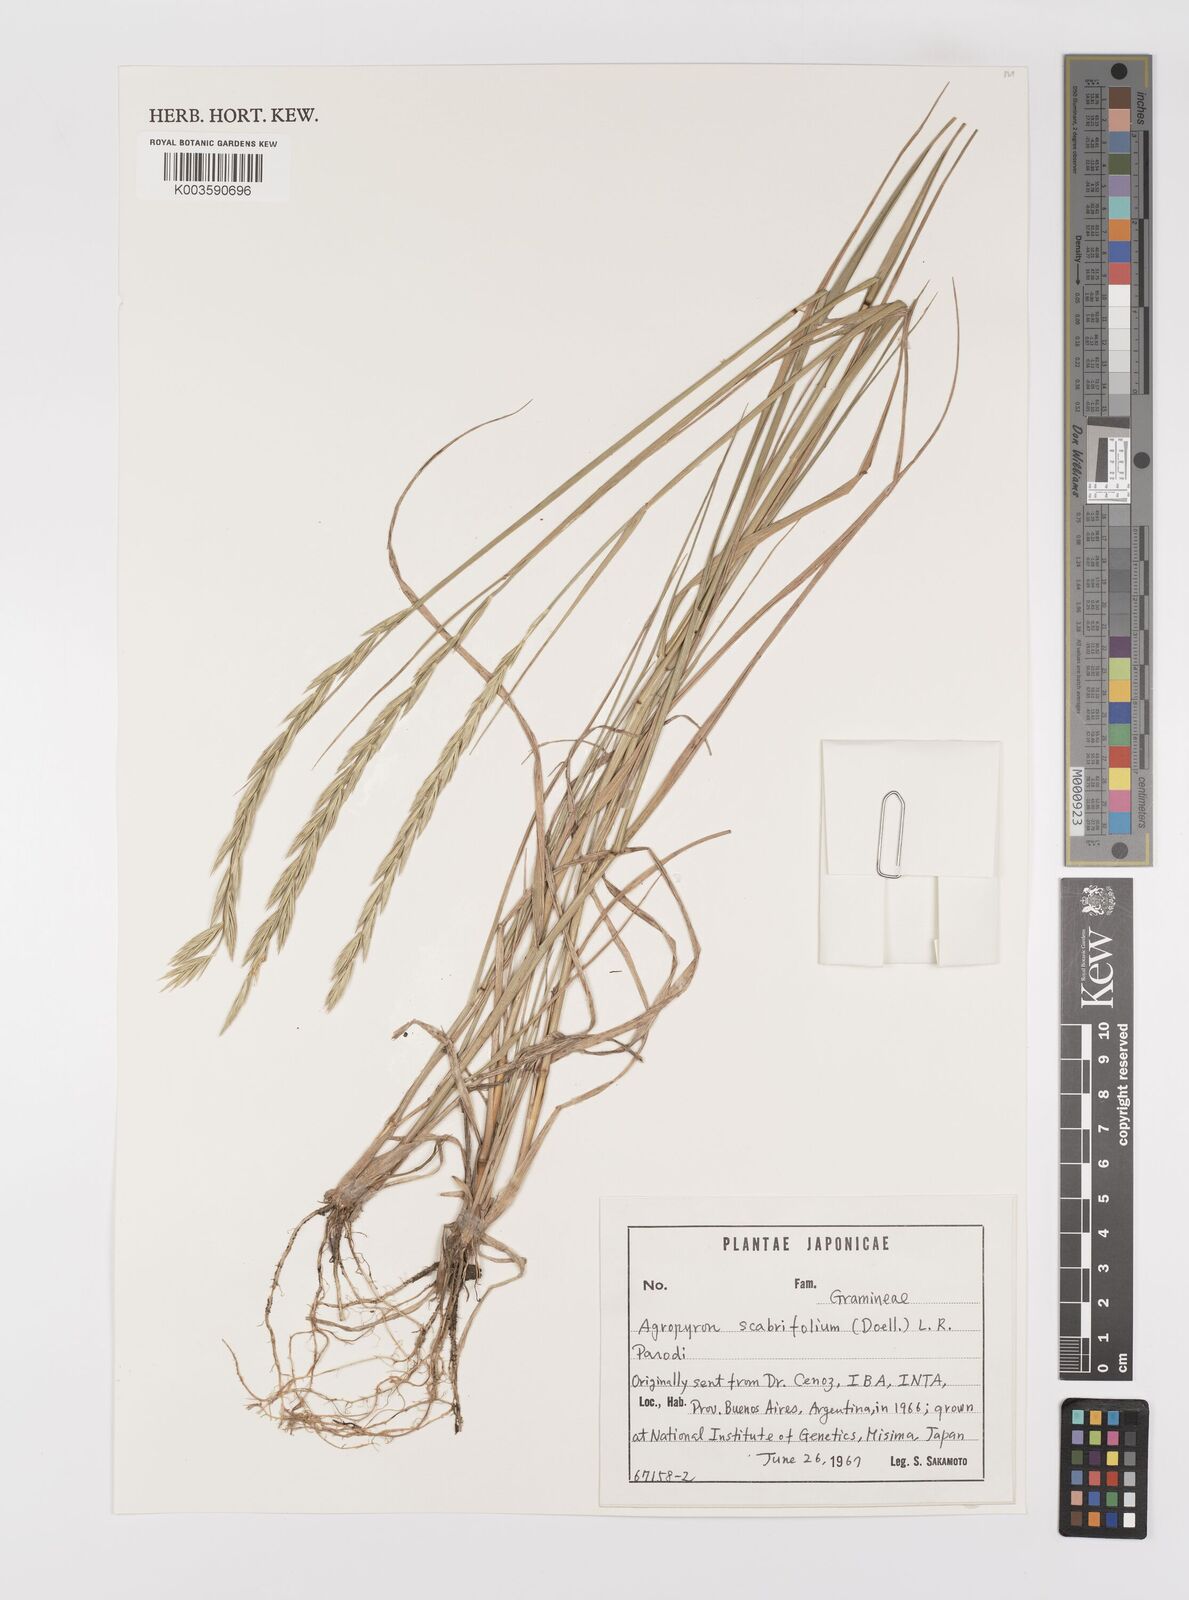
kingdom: Plantae
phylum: Tracheophyta
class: Liliopsida
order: Poales
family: Poaceae
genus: Elymus
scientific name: Elymus scabrifolius
